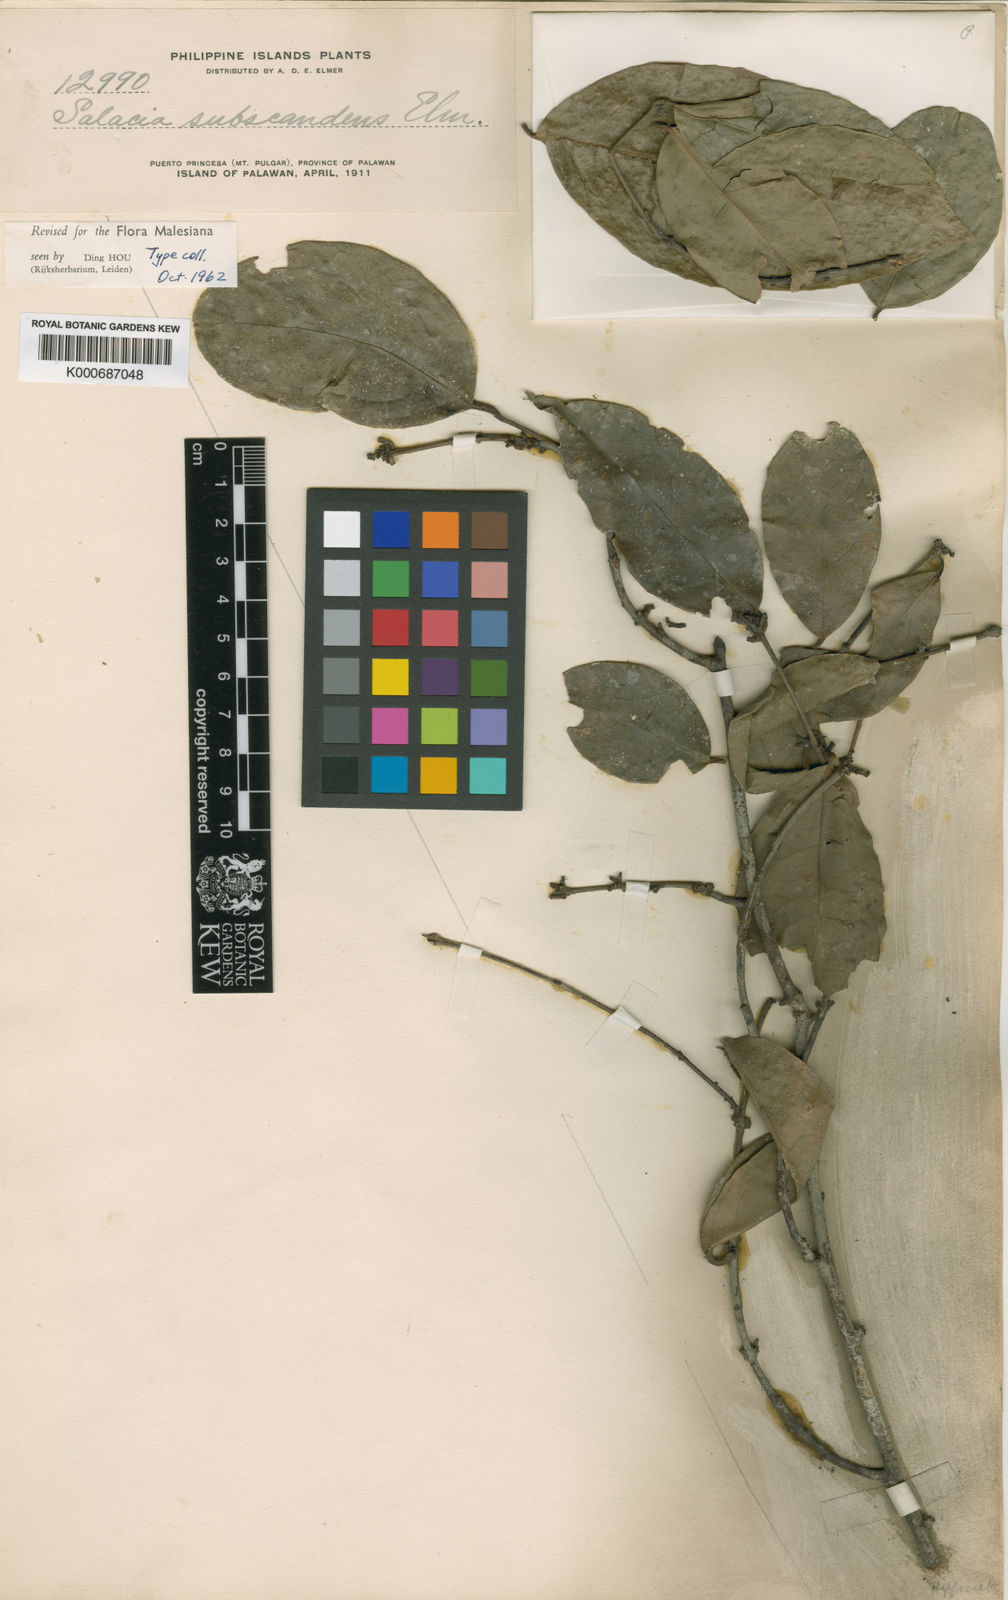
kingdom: Plantae
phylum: Tracheophyta
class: Magnoliopsida
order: Celastrales
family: Celastraceae
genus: Salacia
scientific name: Salacia kalahiensis
